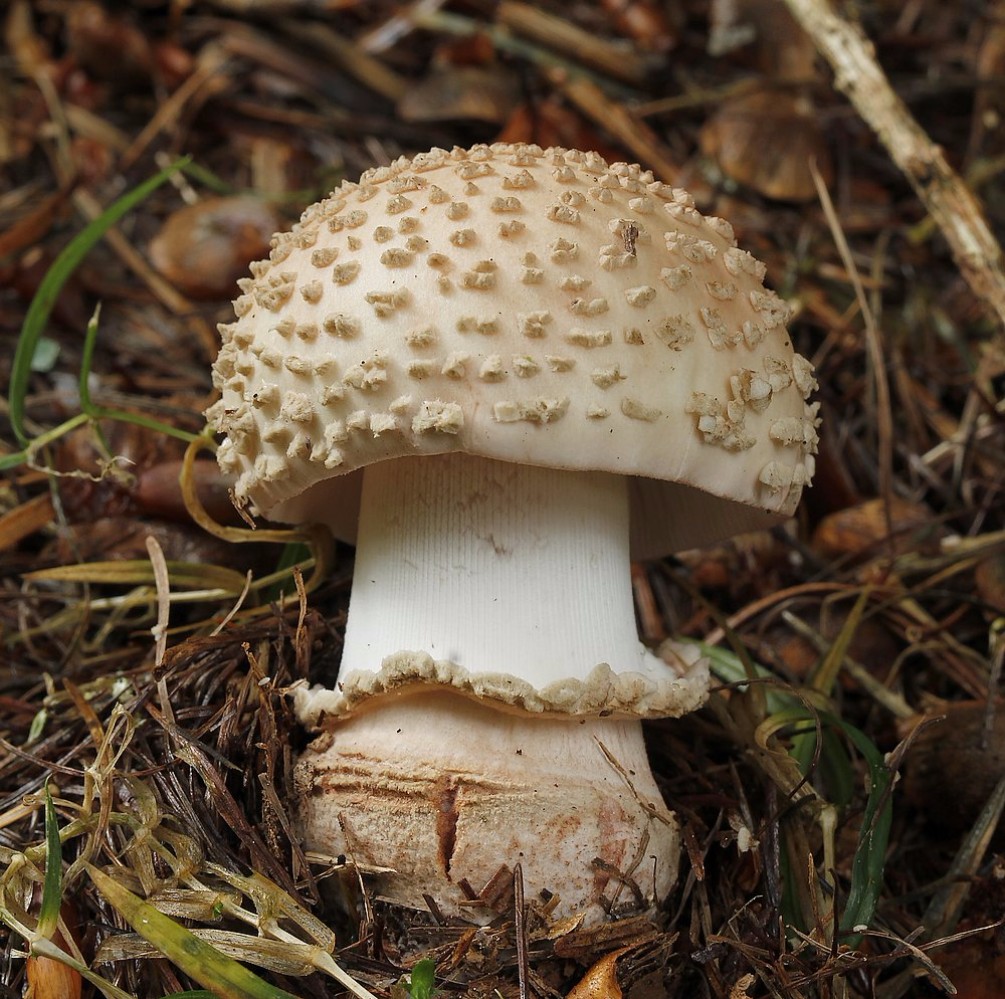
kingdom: Fungi
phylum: Basidiomycota
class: Agaricomycetes
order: Agaricales
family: Amanitaceae
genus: Amanita
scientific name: Amanita rubescens
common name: rødmende fluesvamp
